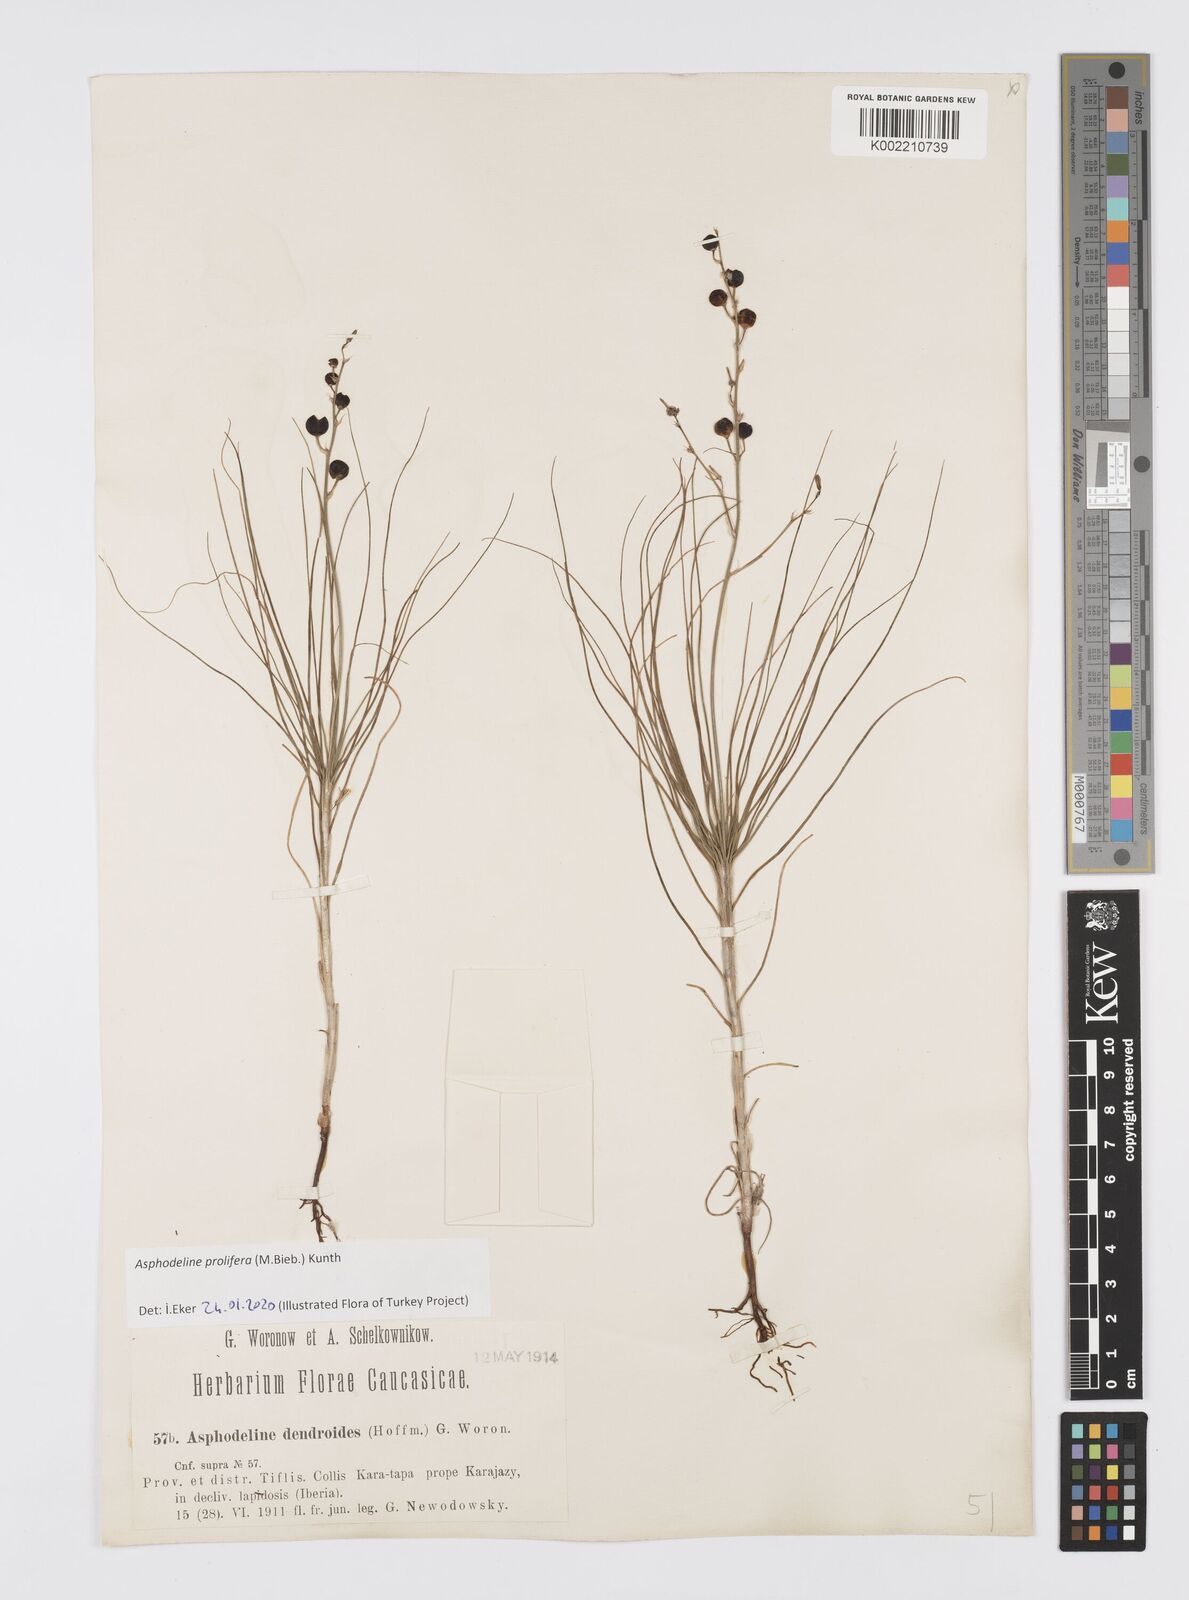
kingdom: Plantae
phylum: Tracheophyta
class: Liliopsida
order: Asparagales
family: Asphodelaceae
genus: Asphodeline
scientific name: Asphodeline prolifera
